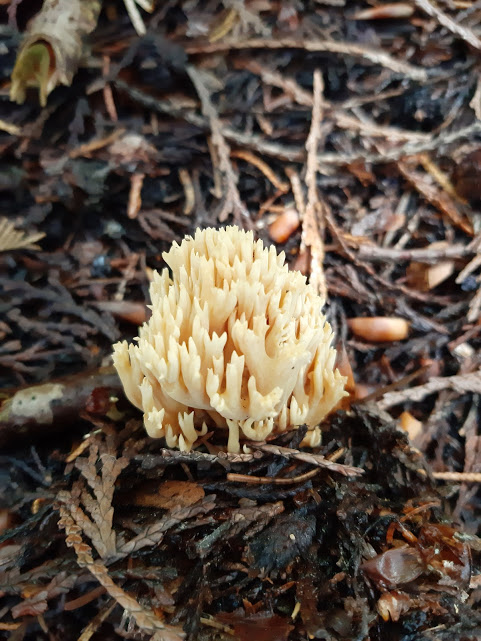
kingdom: Fungi
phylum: Basidiomycota
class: Agaricomycetes
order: Gomphales
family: Gomphaceae
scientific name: Gomphaceae
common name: køllekantarelfamilien
